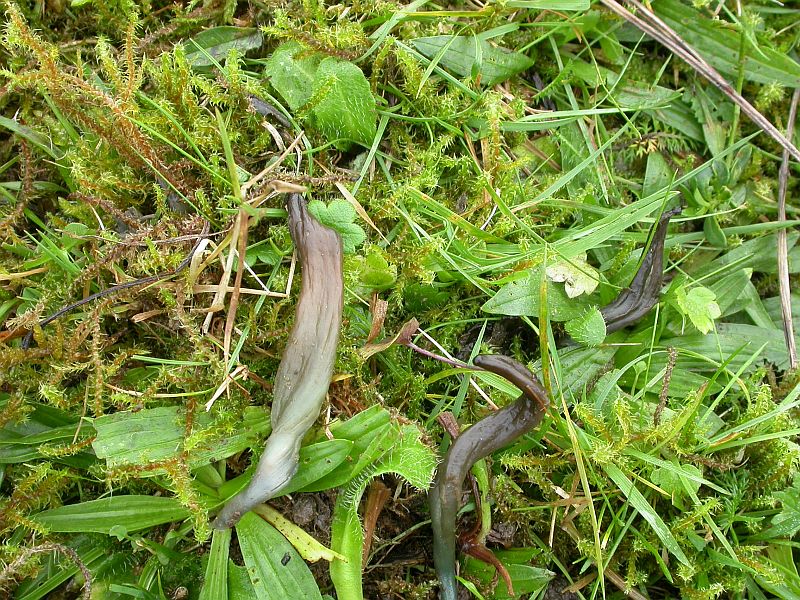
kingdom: Fungi
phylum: Ascomycota
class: Leotiomycetes
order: Leotiales
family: Leotiaceae
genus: Microglossum
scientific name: Microglossum olivaceum
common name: olivenbrun farvetunge
